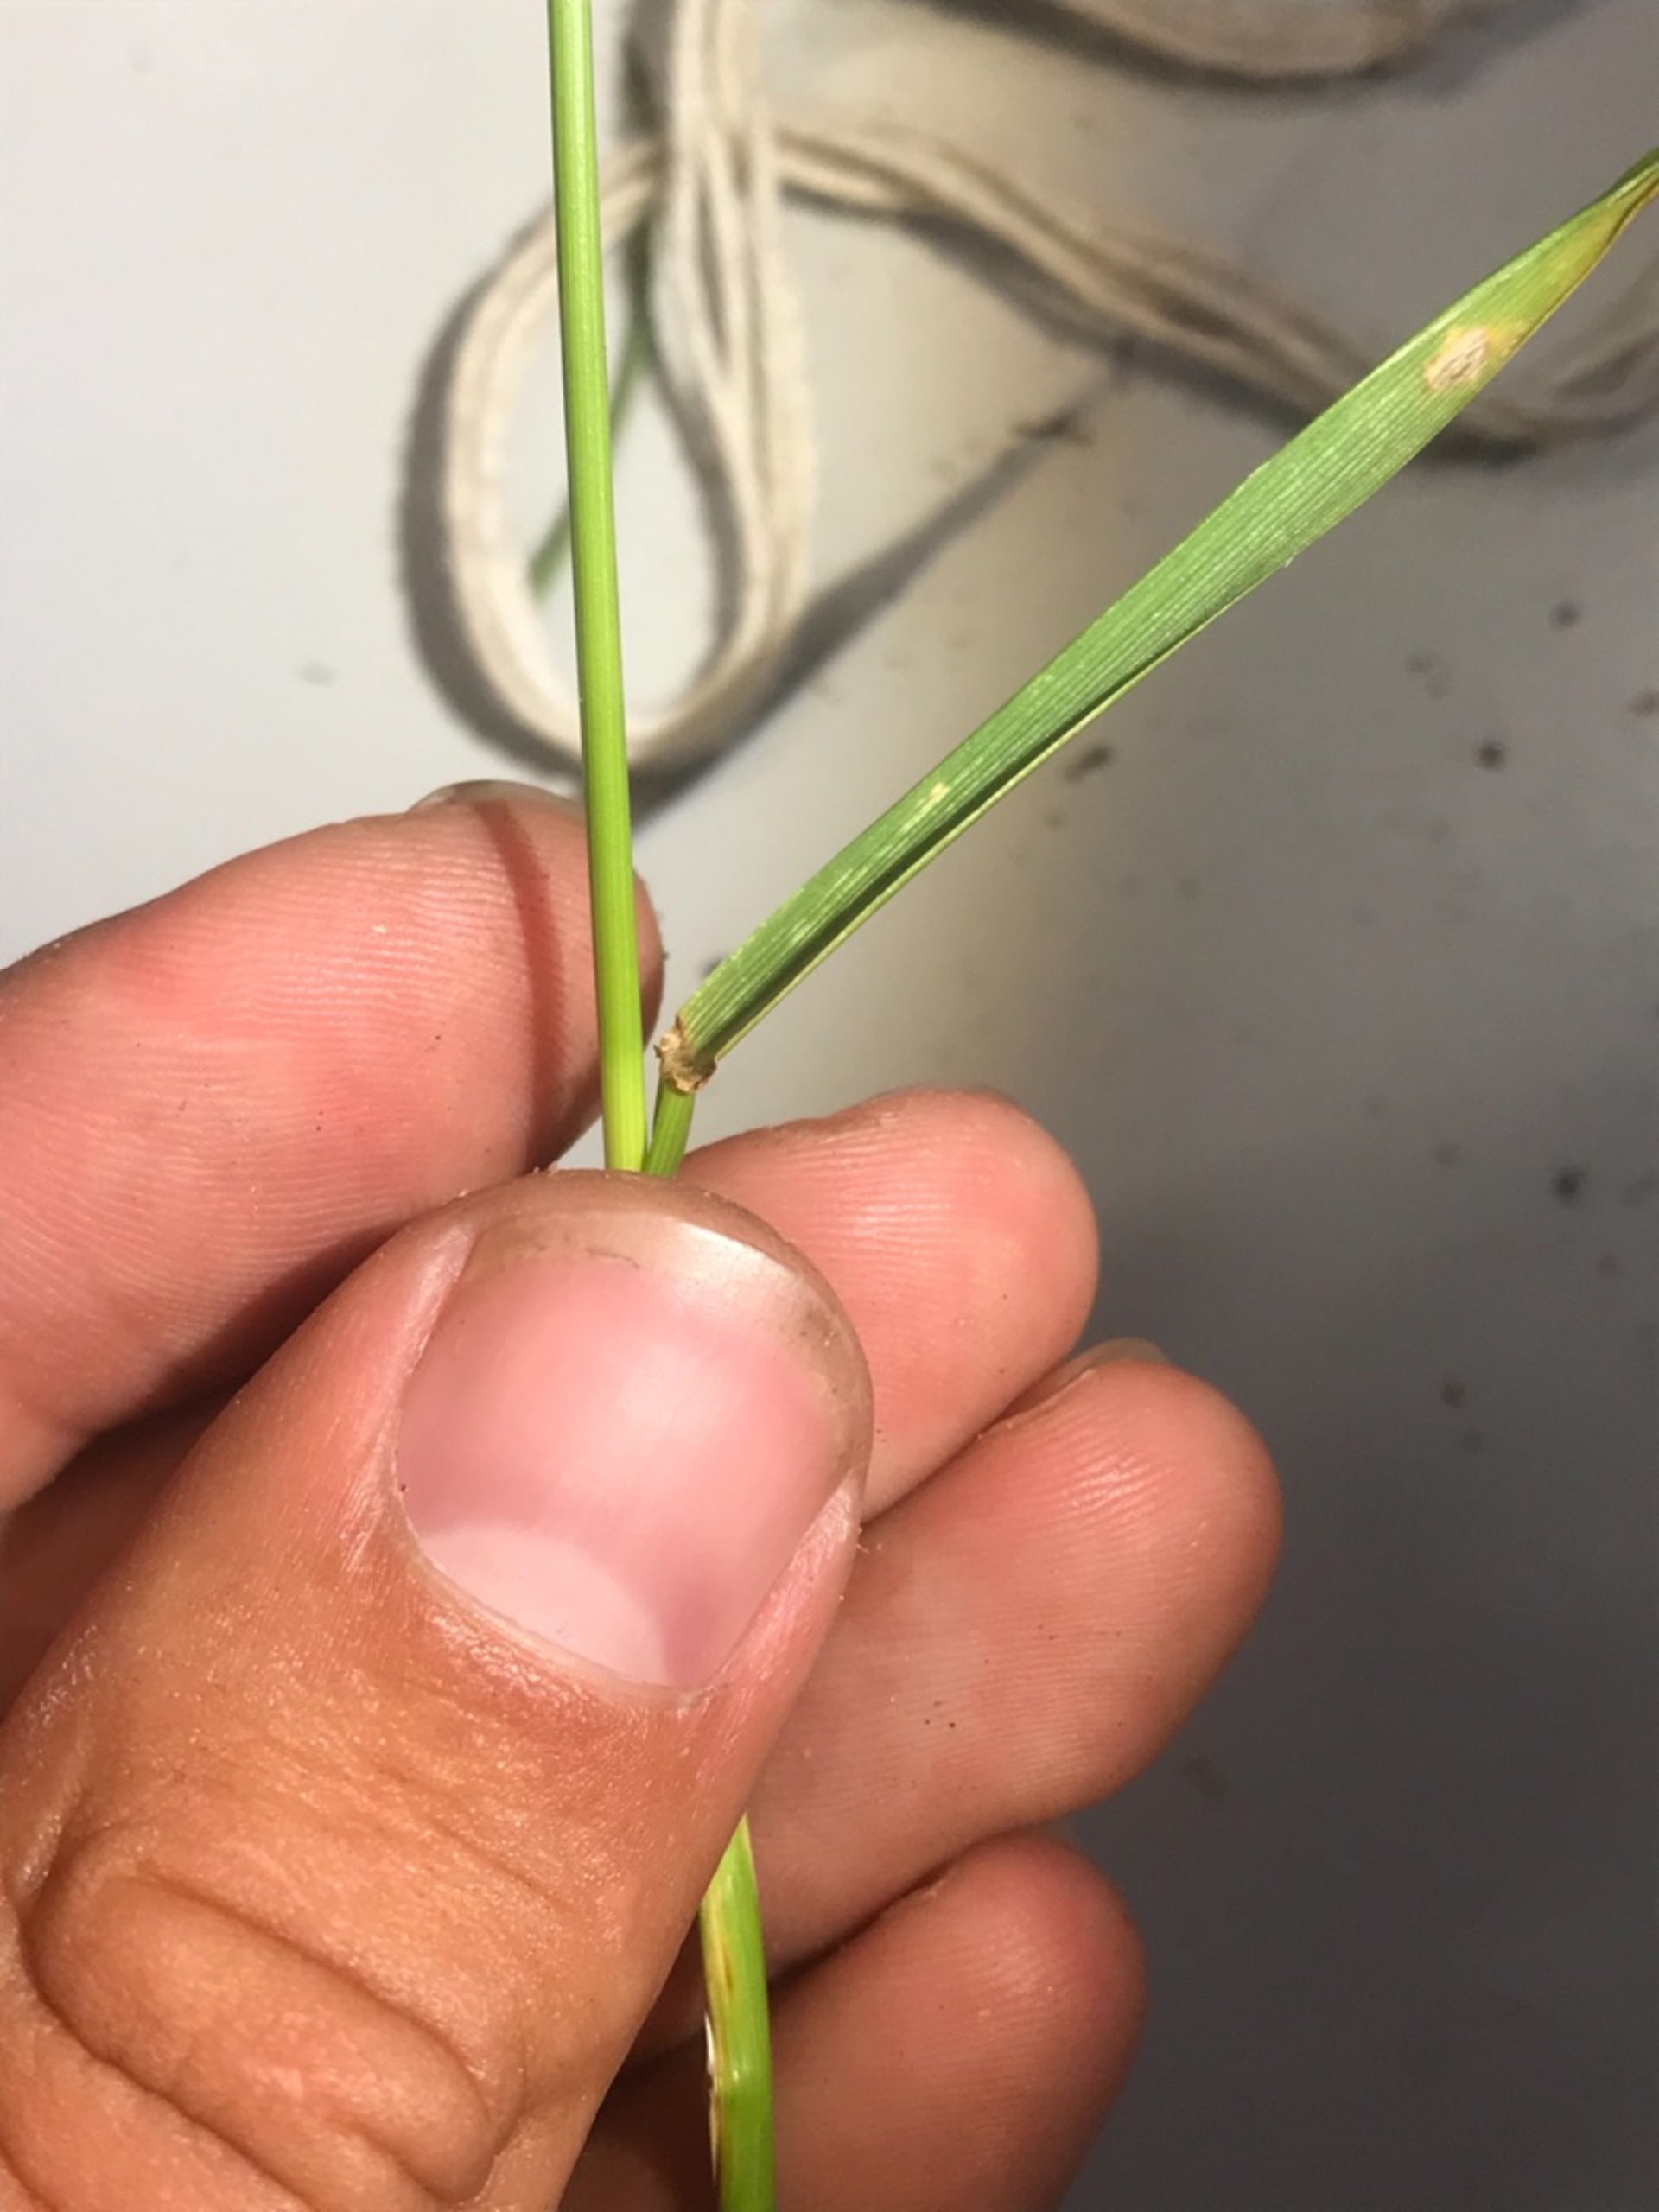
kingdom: Plantae
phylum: Tracheophyta
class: Liliopsida
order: Poales
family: Poaceae
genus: Lolium
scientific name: Lolium pratense
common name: Eng-svingel
